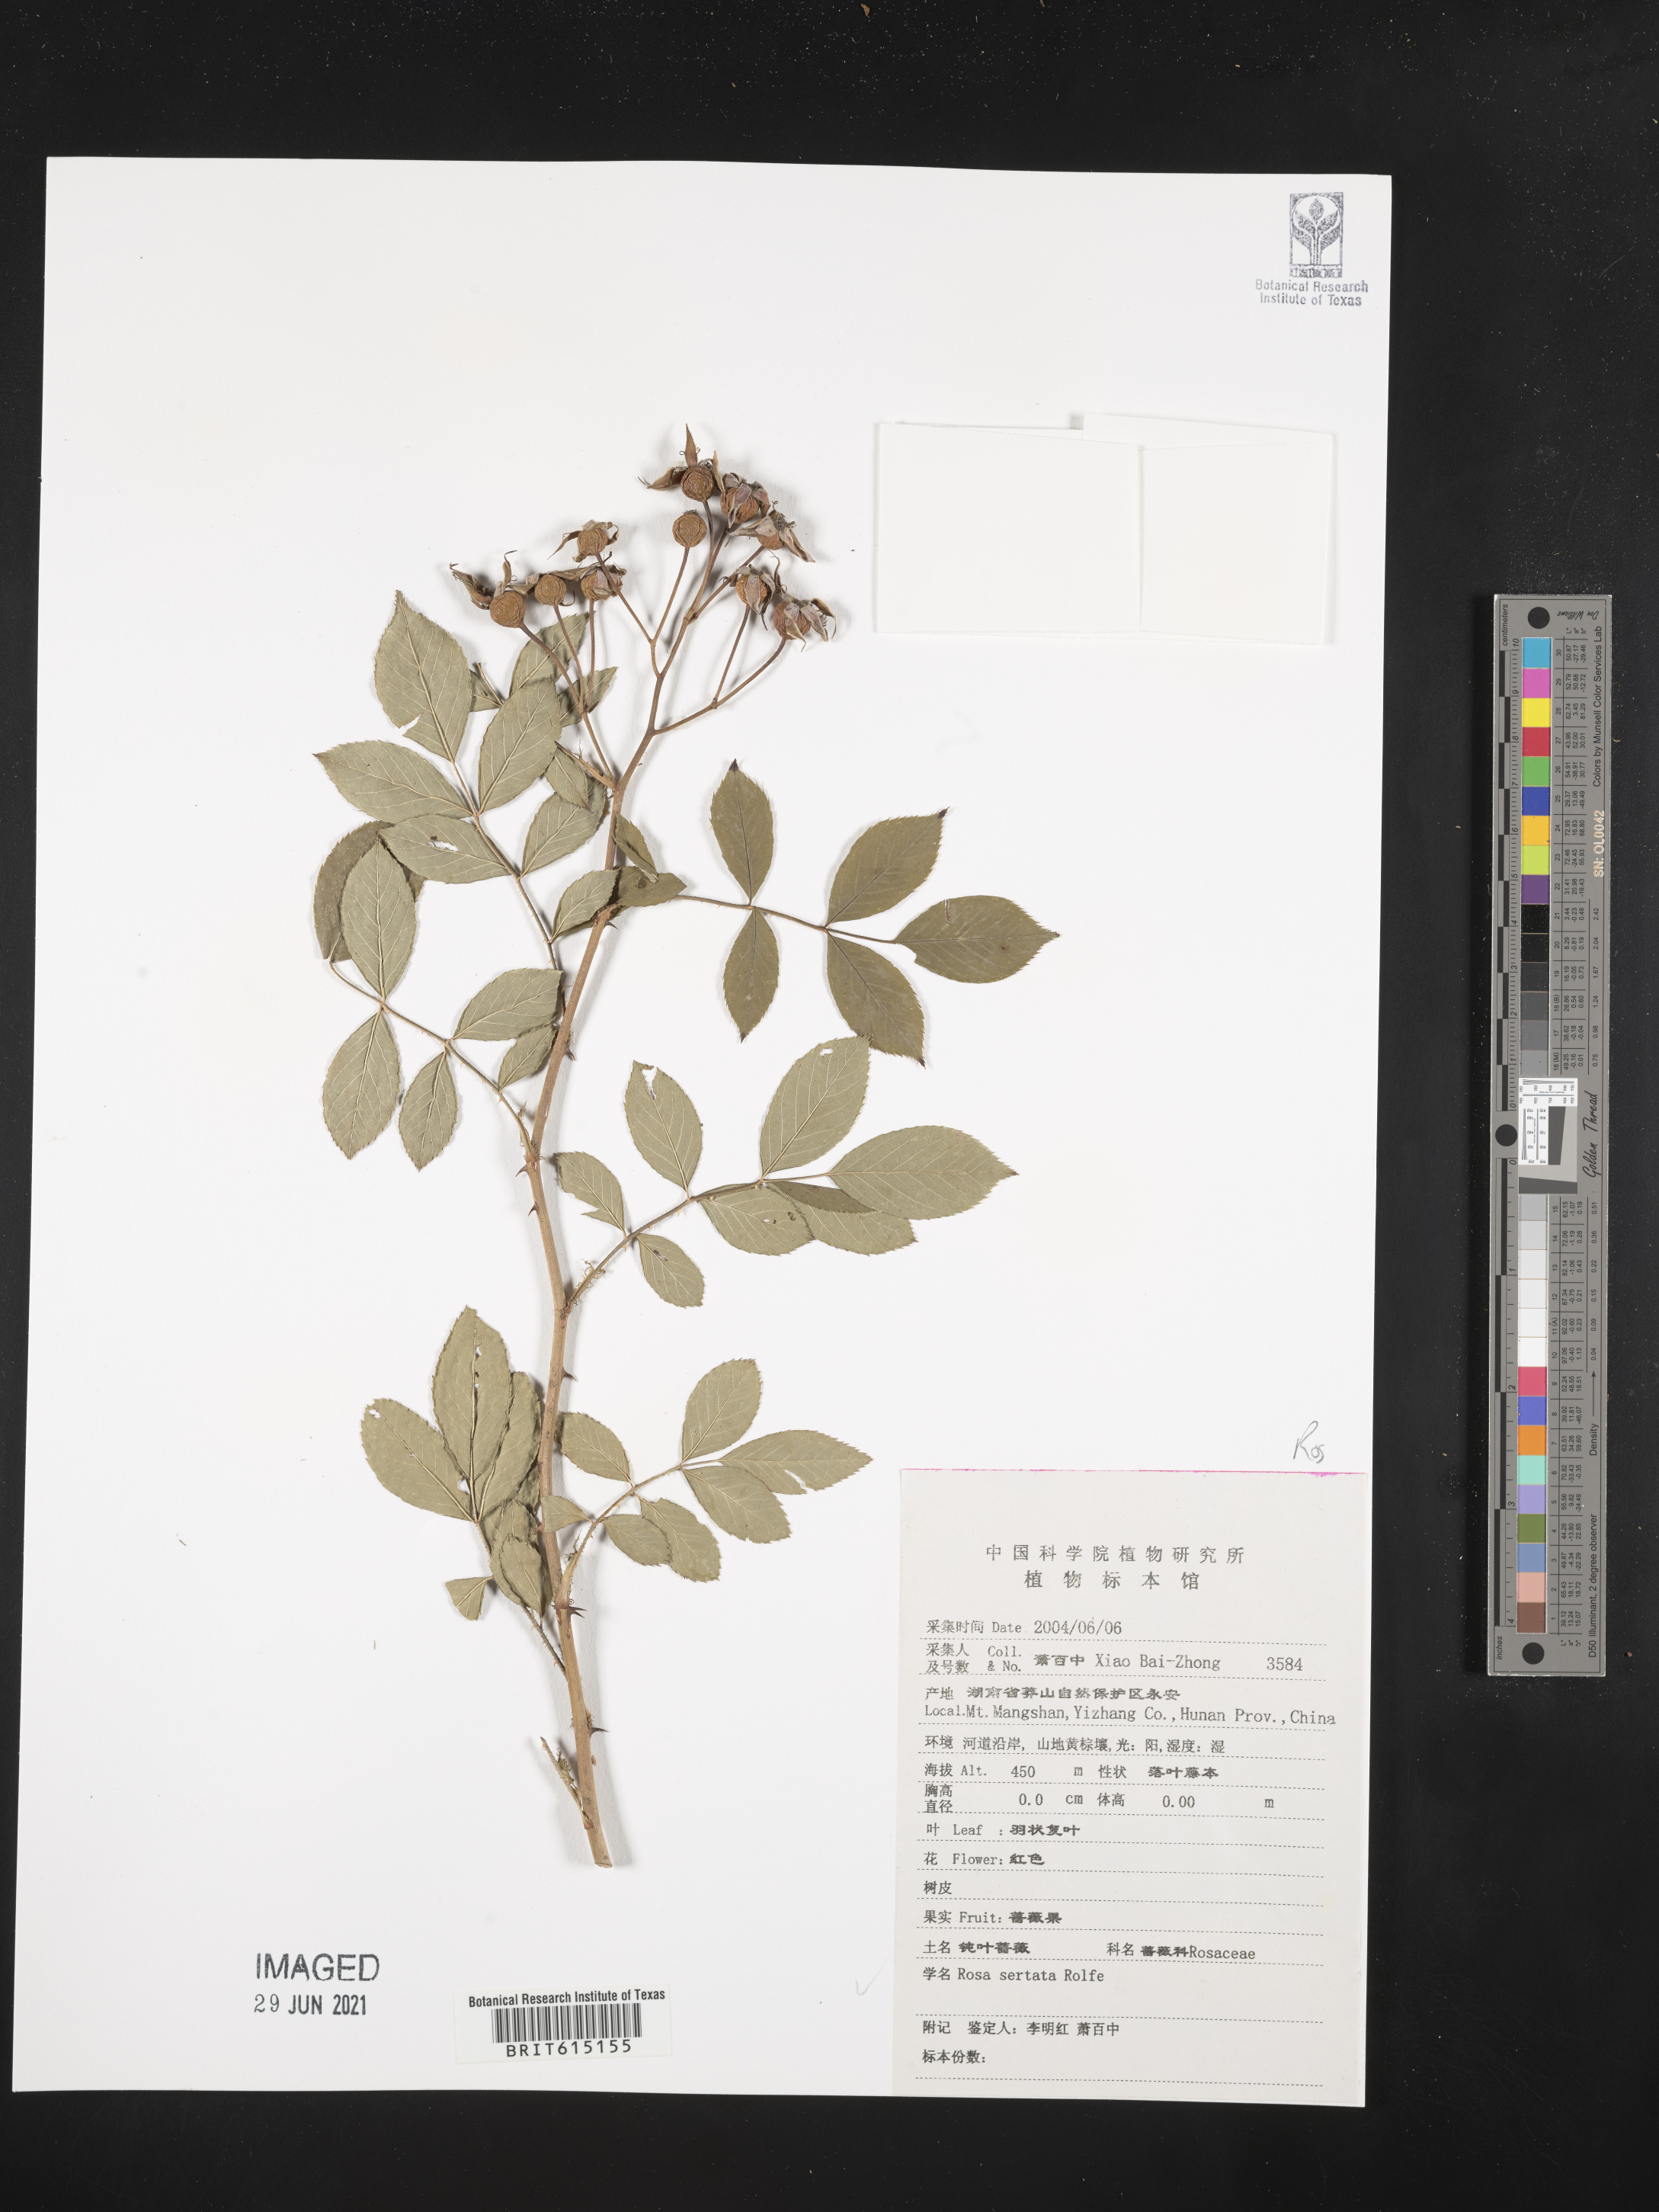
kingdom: Plantae
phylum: Tracheophyta
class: Magnoliopsida
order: Rosales
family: Rosaceae
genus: Rosa
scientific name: Rosa sertata
